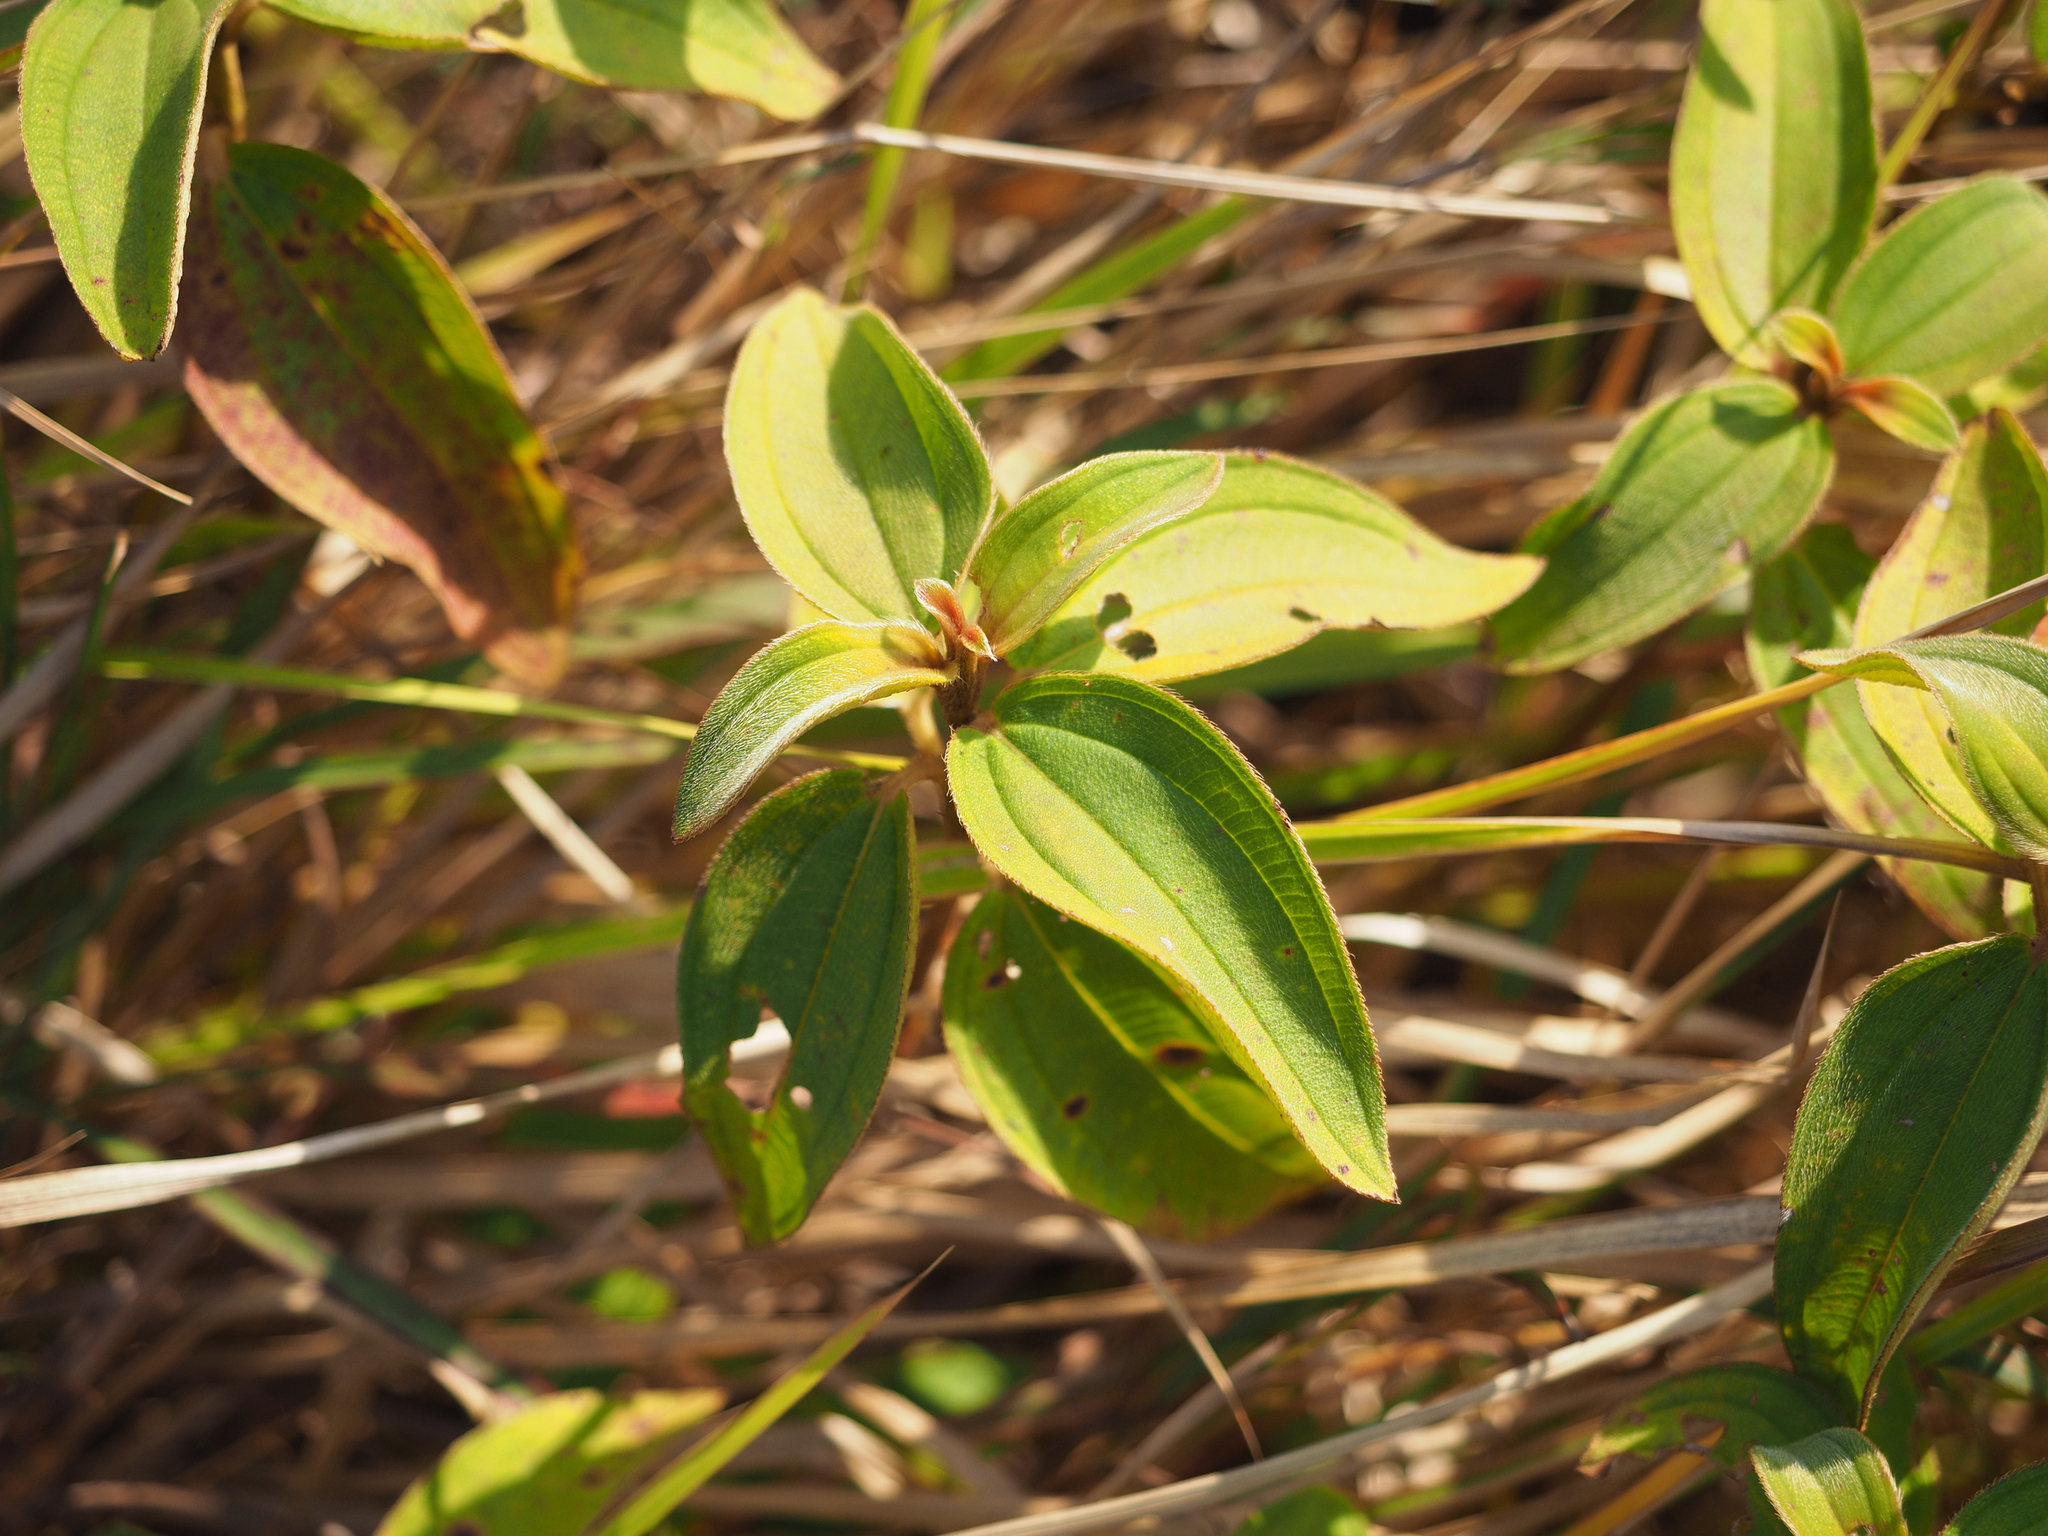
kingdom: Plantae
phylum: Tracheophyta
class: Magnoliopsida
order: Myrtales
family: Melastomataceae
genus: Melastoma
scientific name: Melastoma malabathricum
